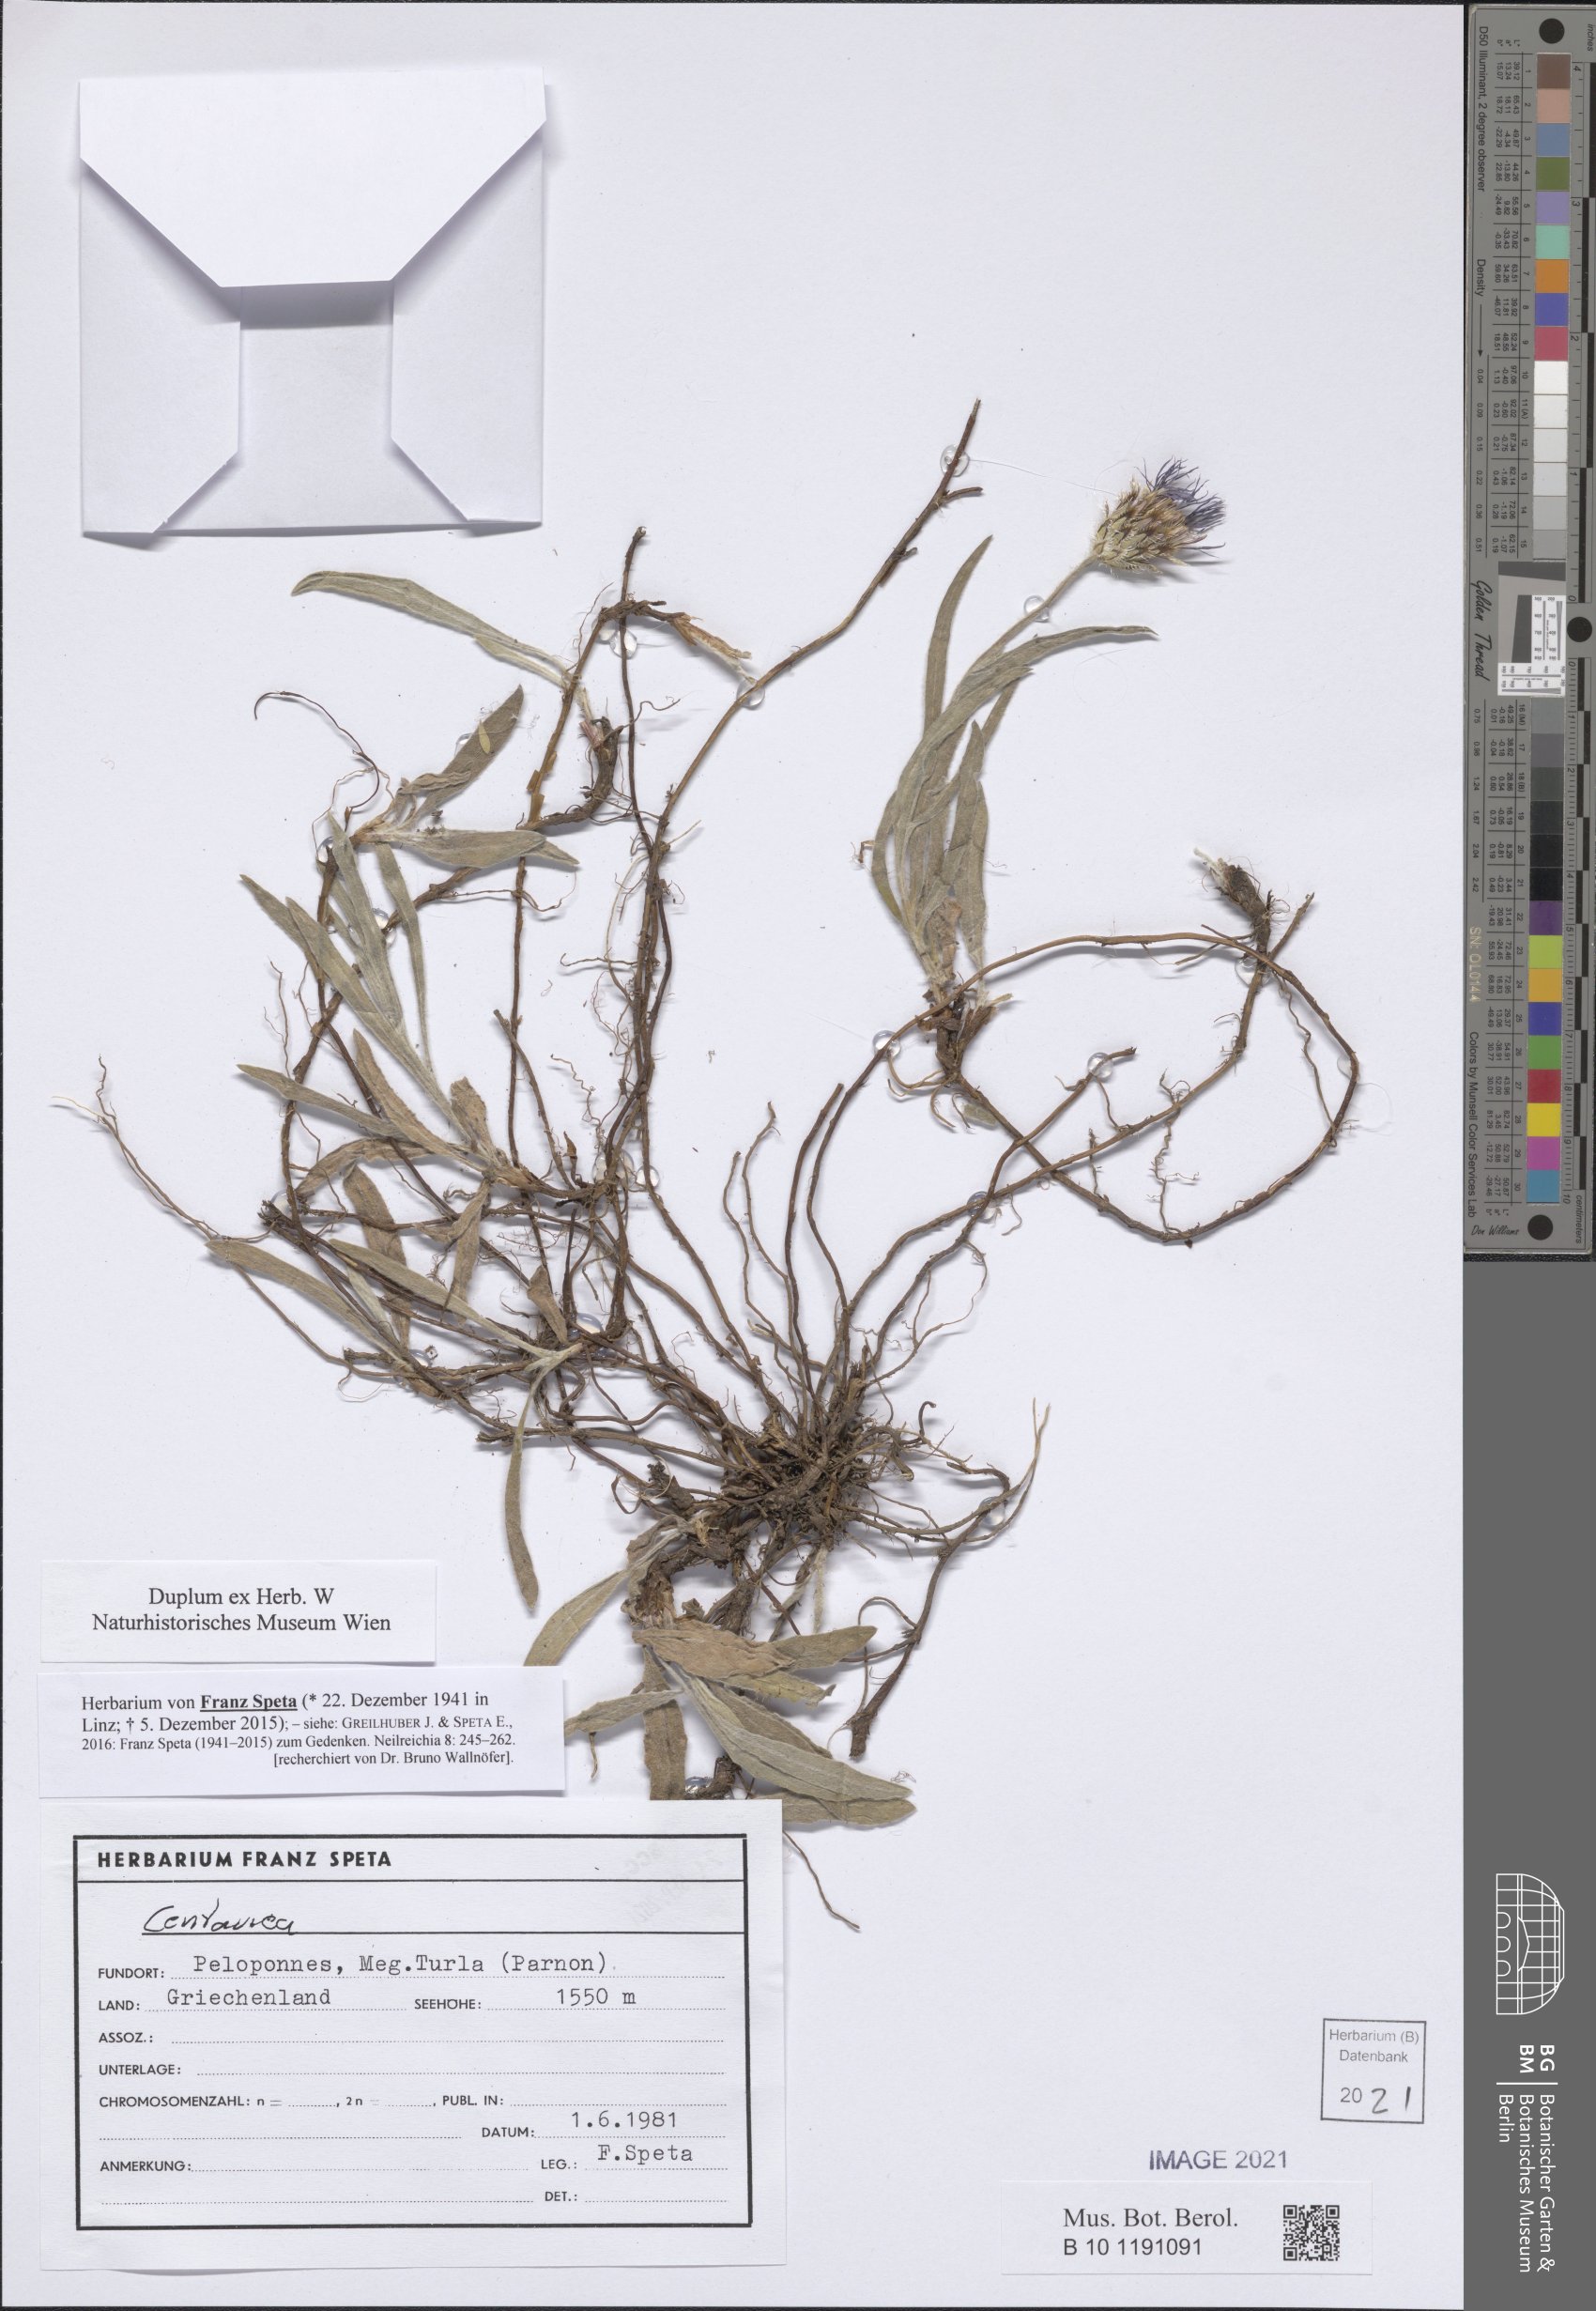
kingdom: Plantae
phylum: Tracheophyta
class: Magnoliopsida
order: Asterales
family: Asteraceae
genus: Centaurea
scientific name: Centaurea
